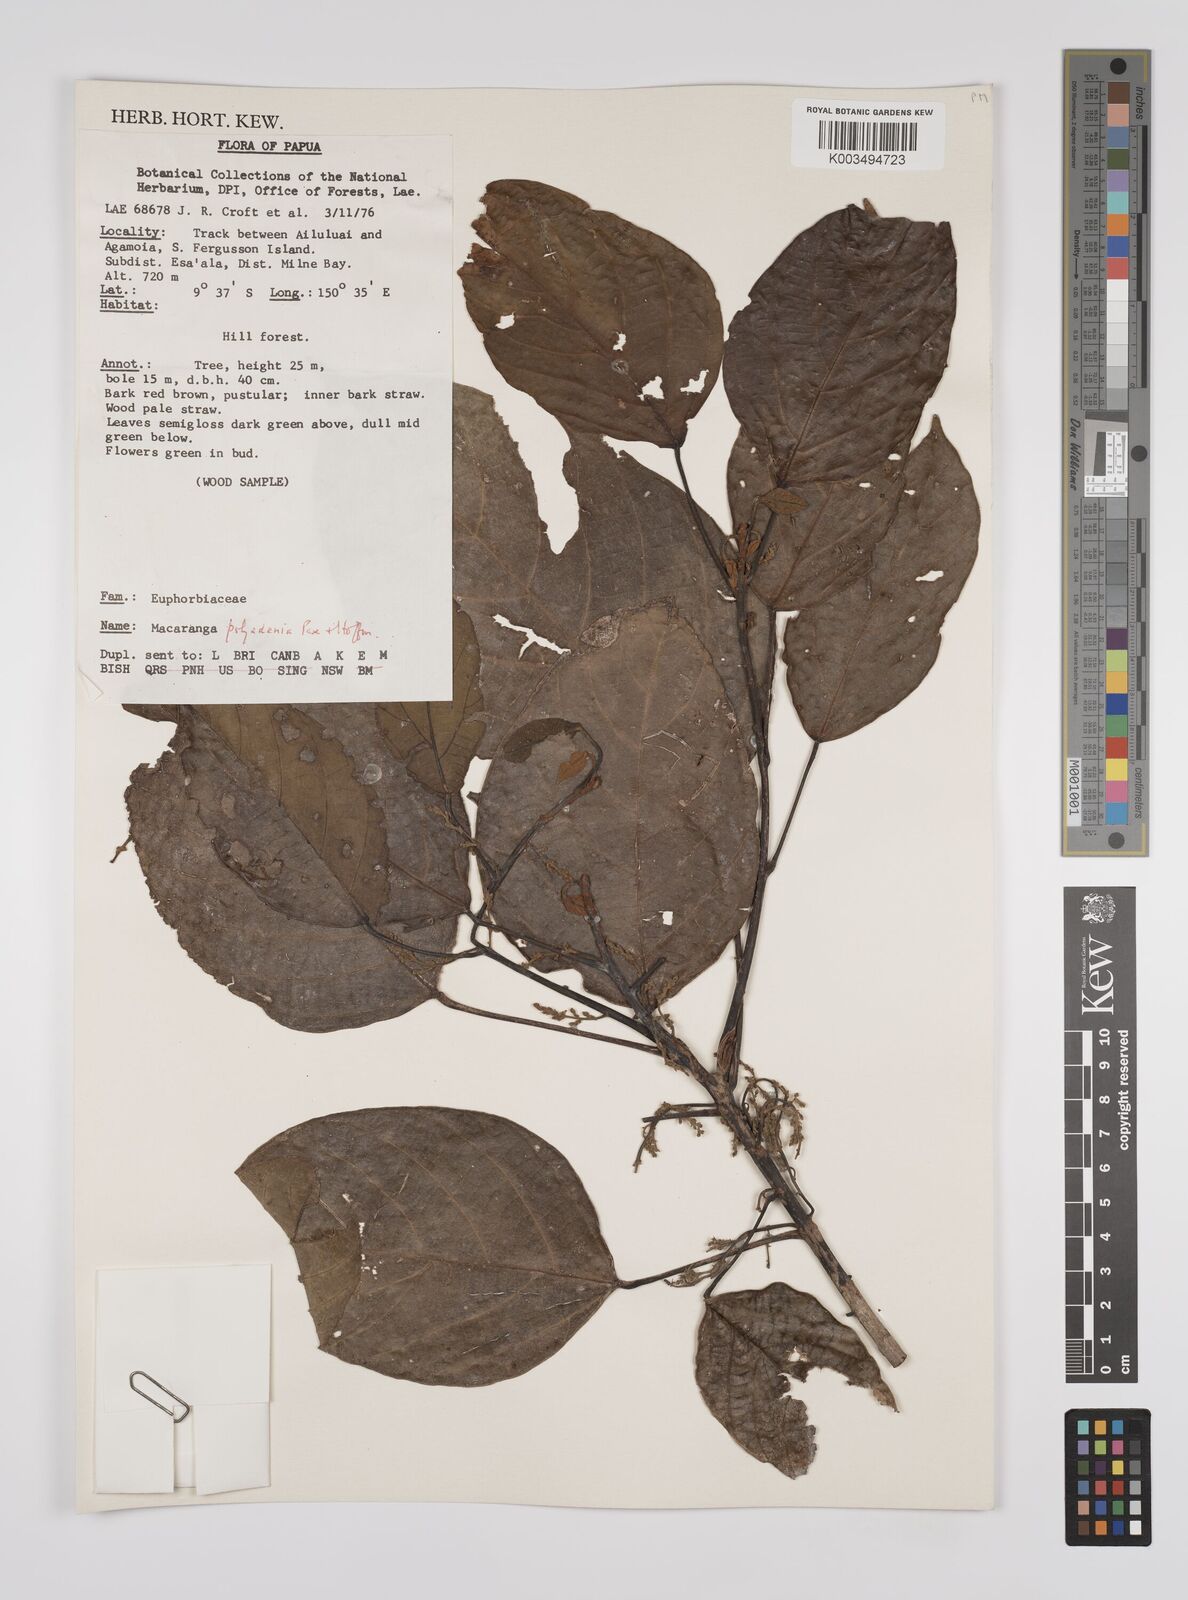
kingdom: Plantae
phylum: Tracheophyta
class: Magnoliopsida
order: Malpighiales
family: Euphorbiaceae
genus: Macaranga
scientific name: Macaranga polyadenia
